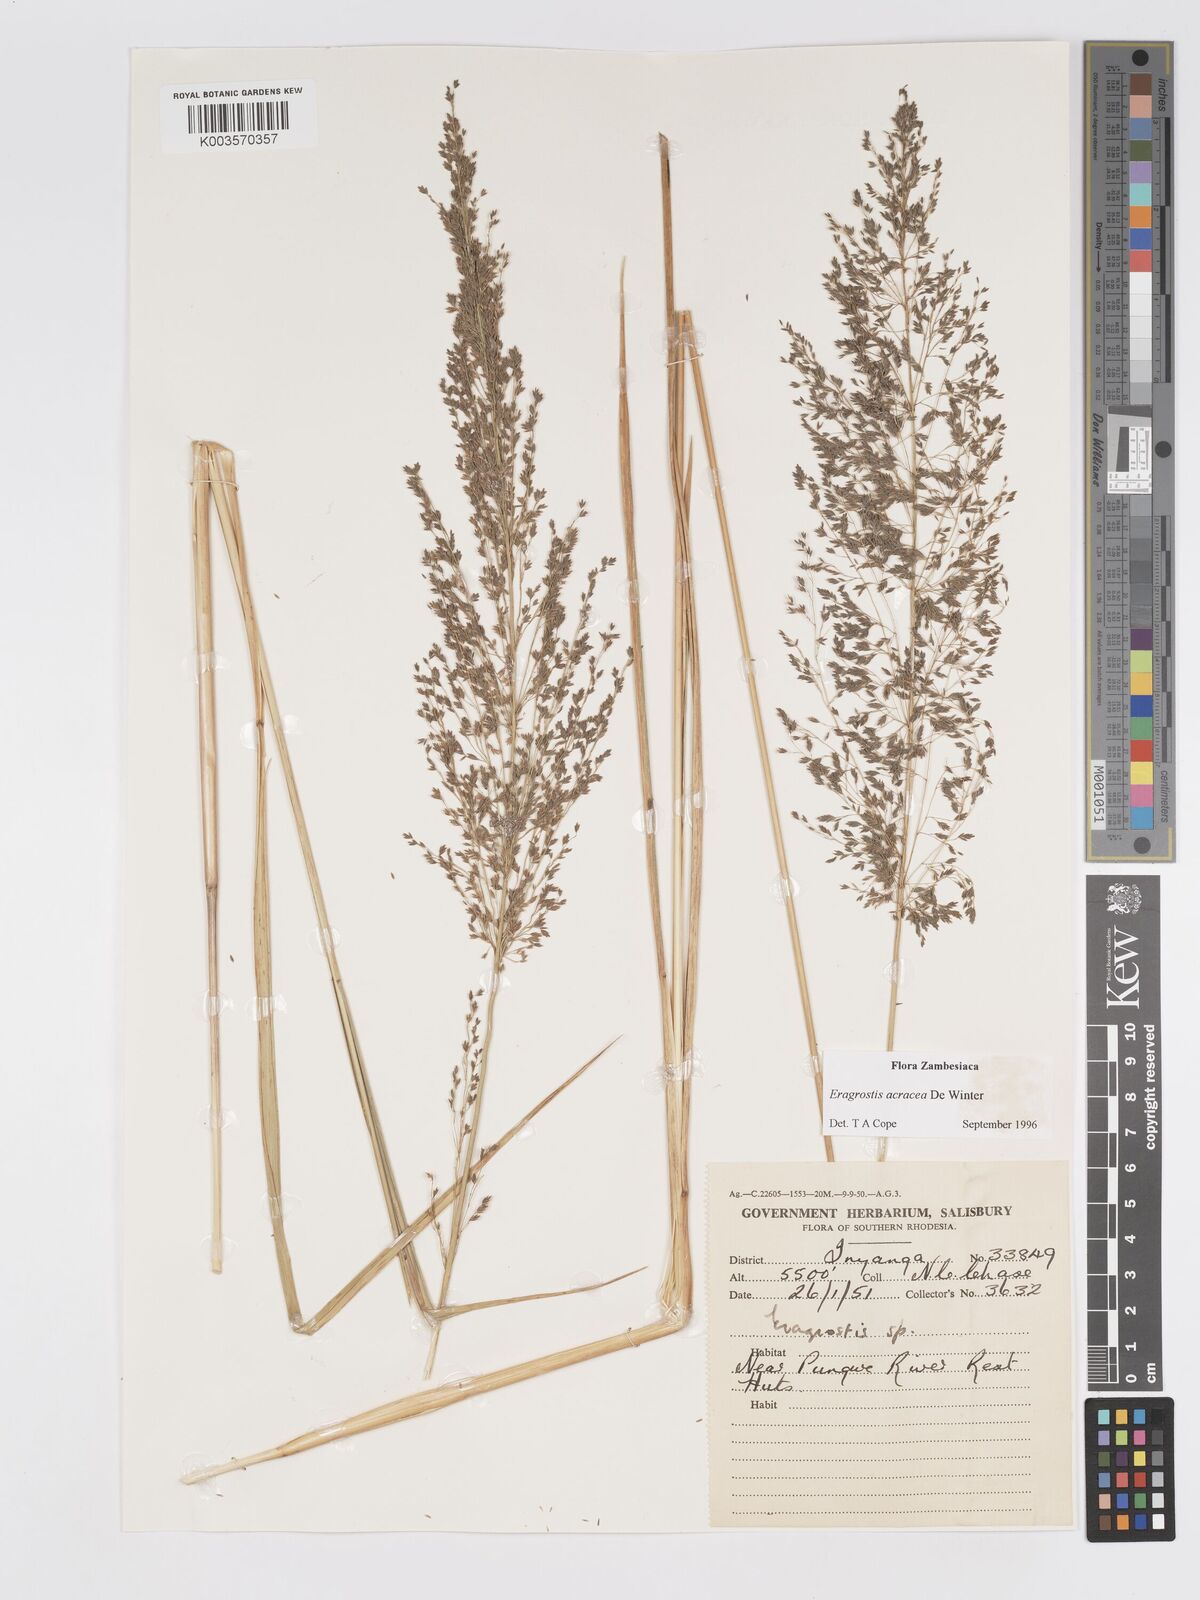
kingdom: Plantae
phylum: Tracheophyta
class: Liliopsida
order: Poales
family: Poaceae
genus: Eragrostis
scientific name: Eragrostis acraea
